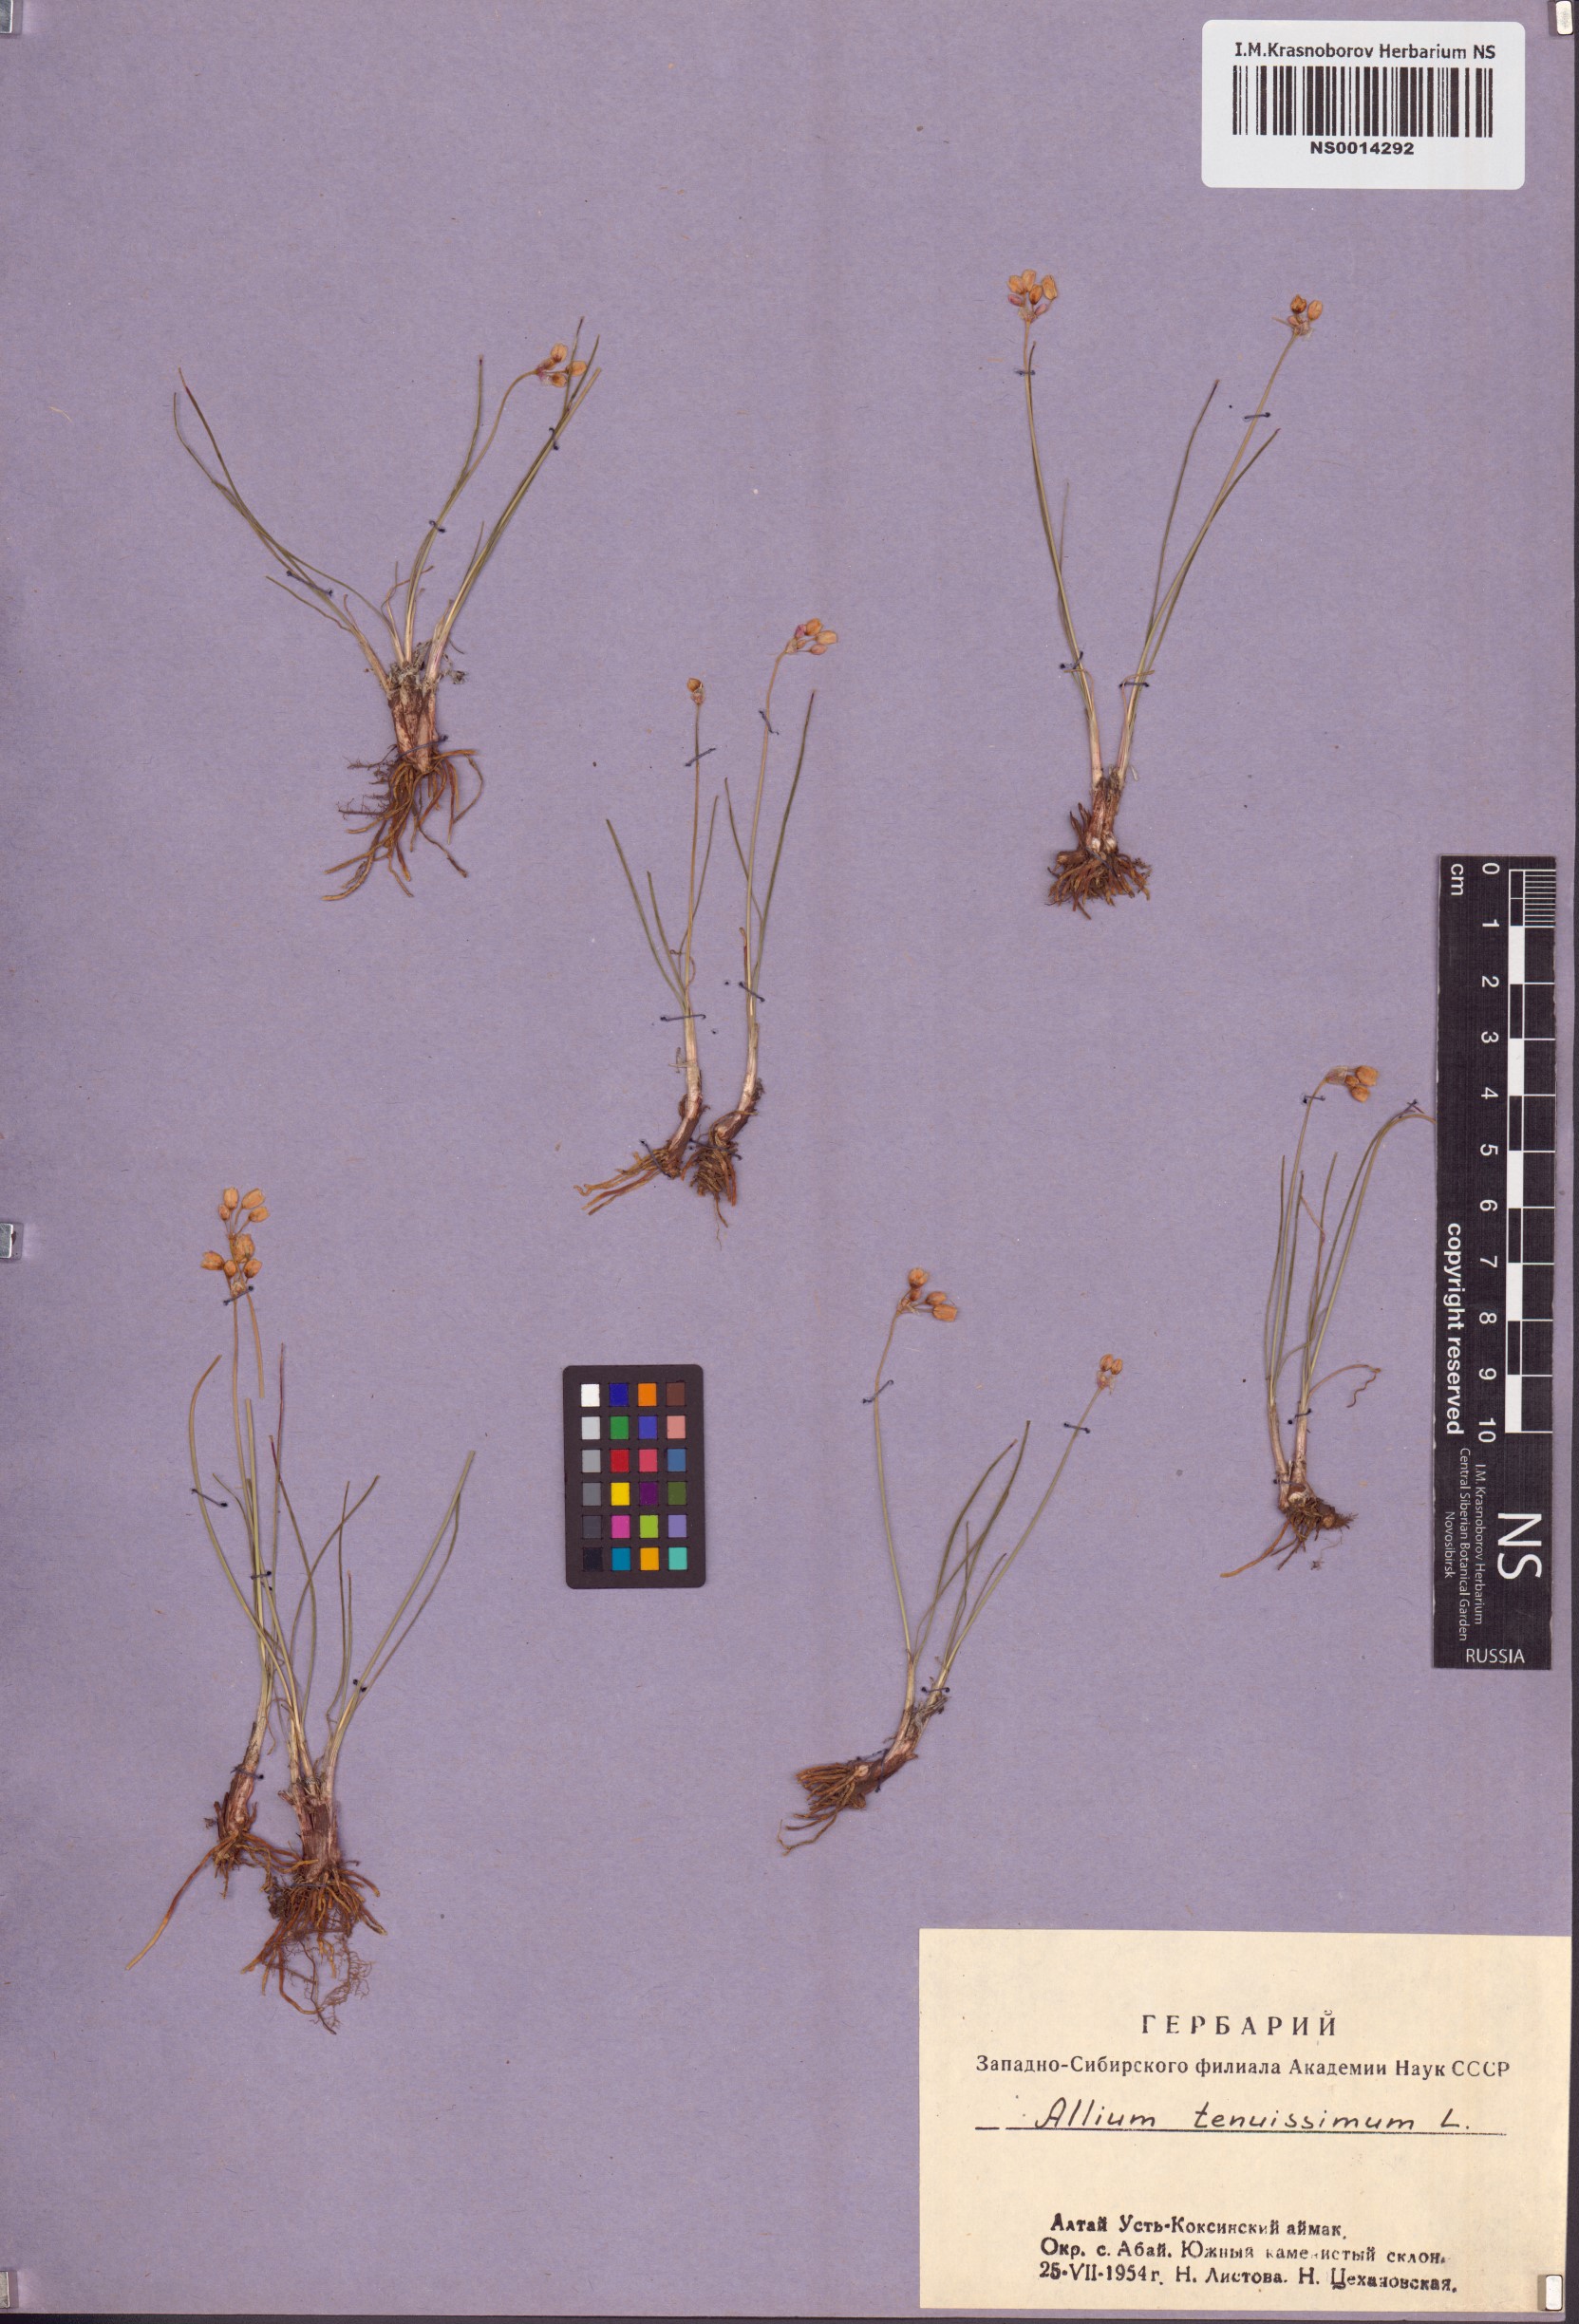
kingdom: Plantae
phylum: Tracheophyta
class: Liliopsida
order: Asparagales
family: Amaryllidaceae
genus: Allium
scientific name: Allium tenuissimum
